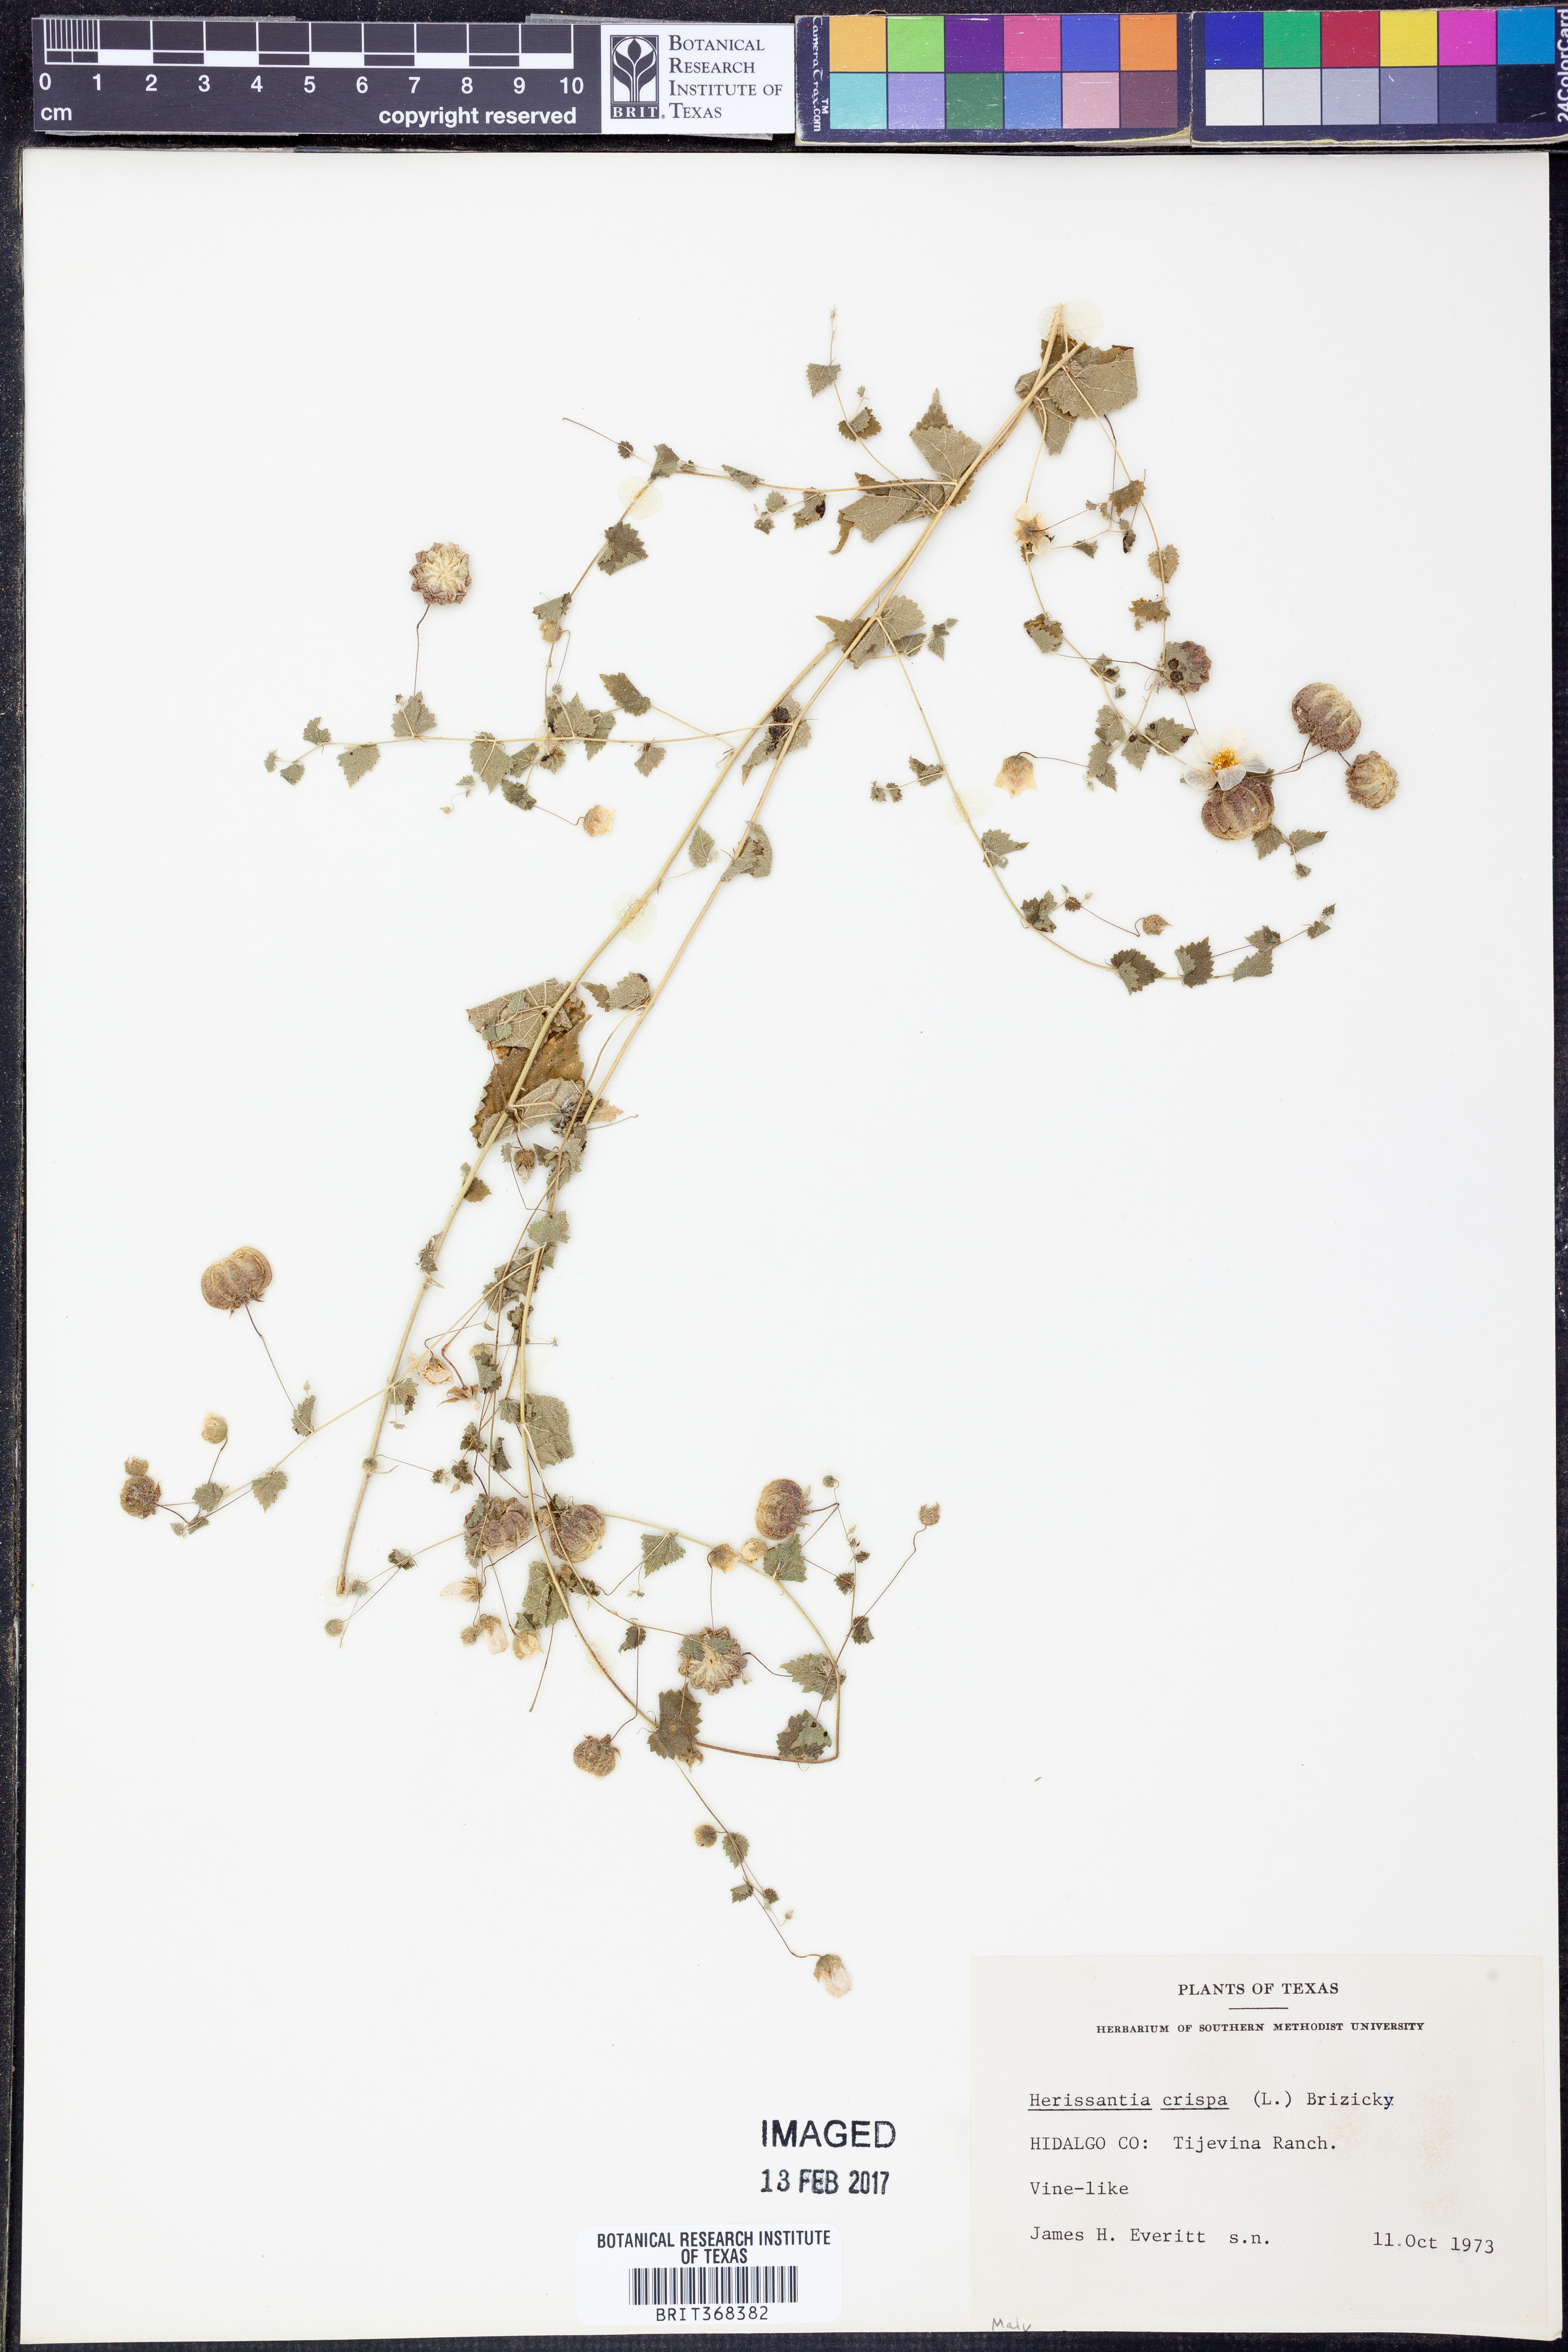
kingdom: Plantae
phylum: Tracheophyta
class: Magnoliopsida
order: Malvales
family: Malvaceae
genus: Herissantia
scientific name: Herissantia crispa
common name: Bladdermallow
